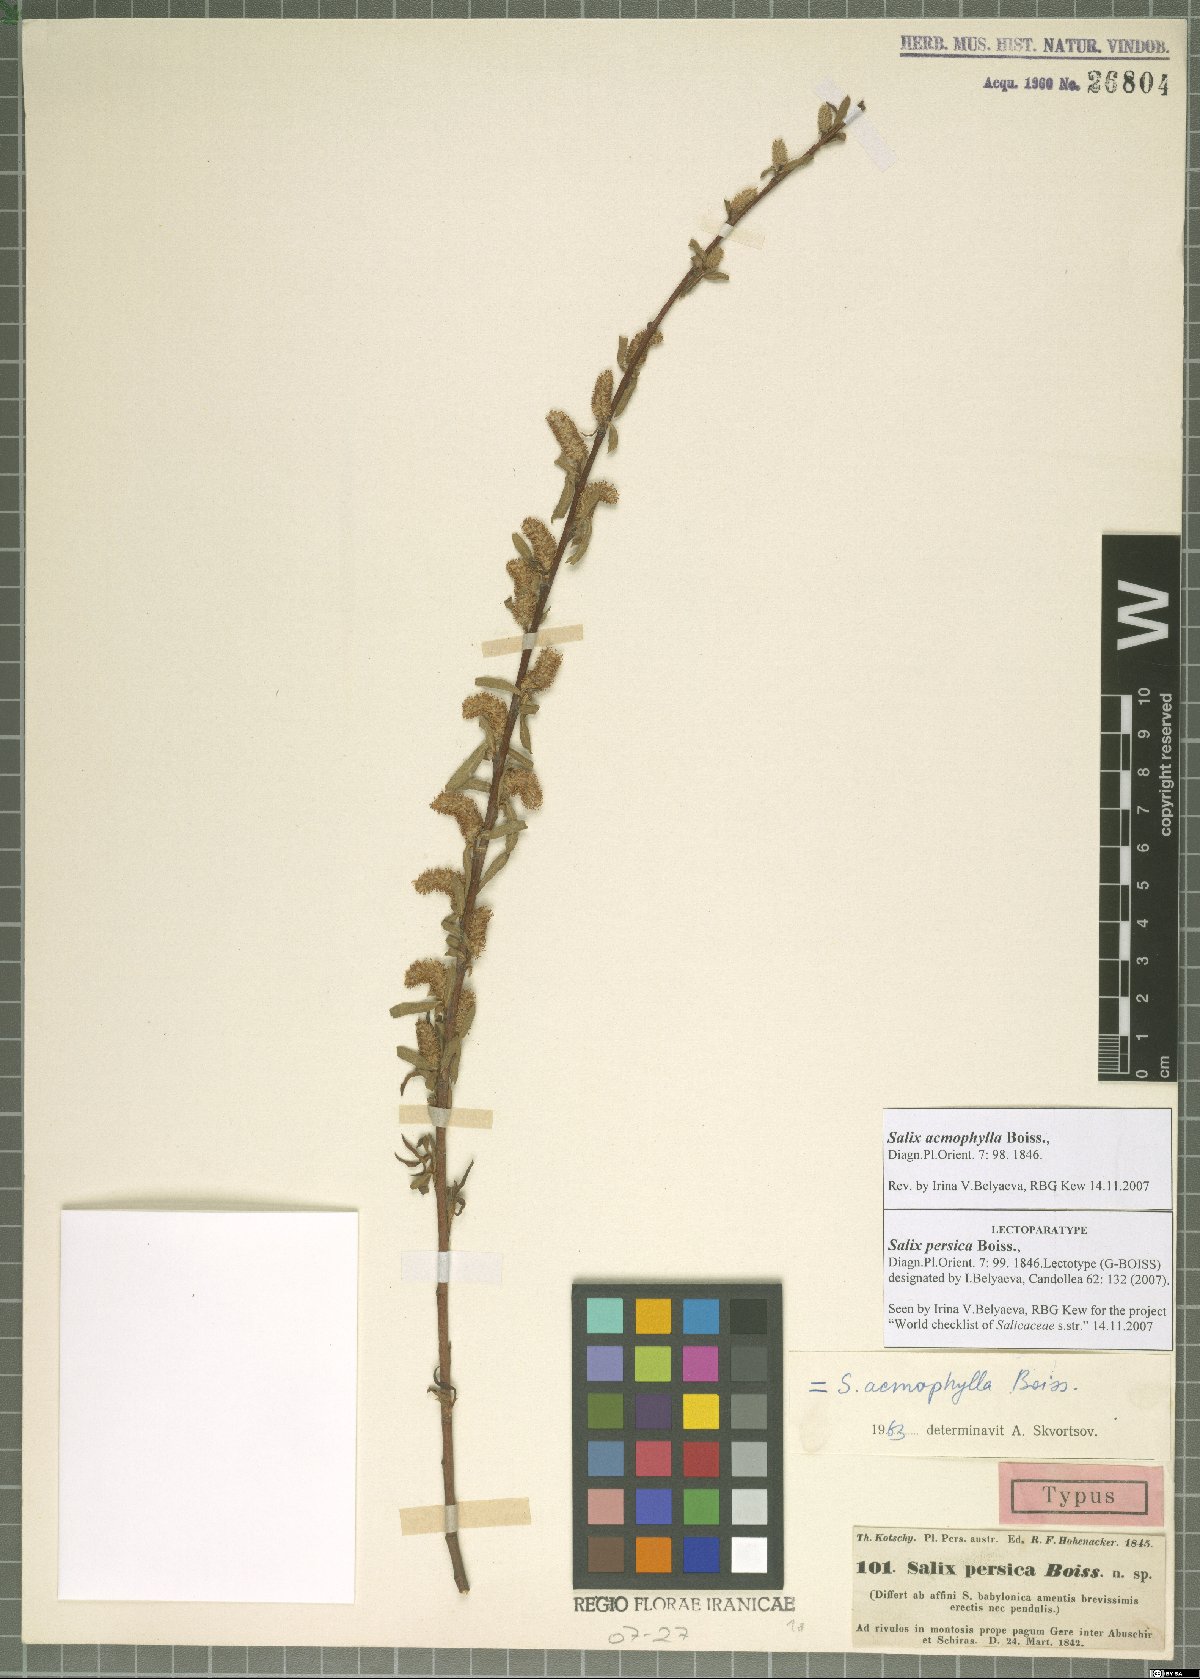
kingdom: Plantae
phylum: Tracheophyta
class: Magnoliopsida
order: Malpighiales
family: Salicaceae
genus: Salix
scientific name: Salix acmophylla
